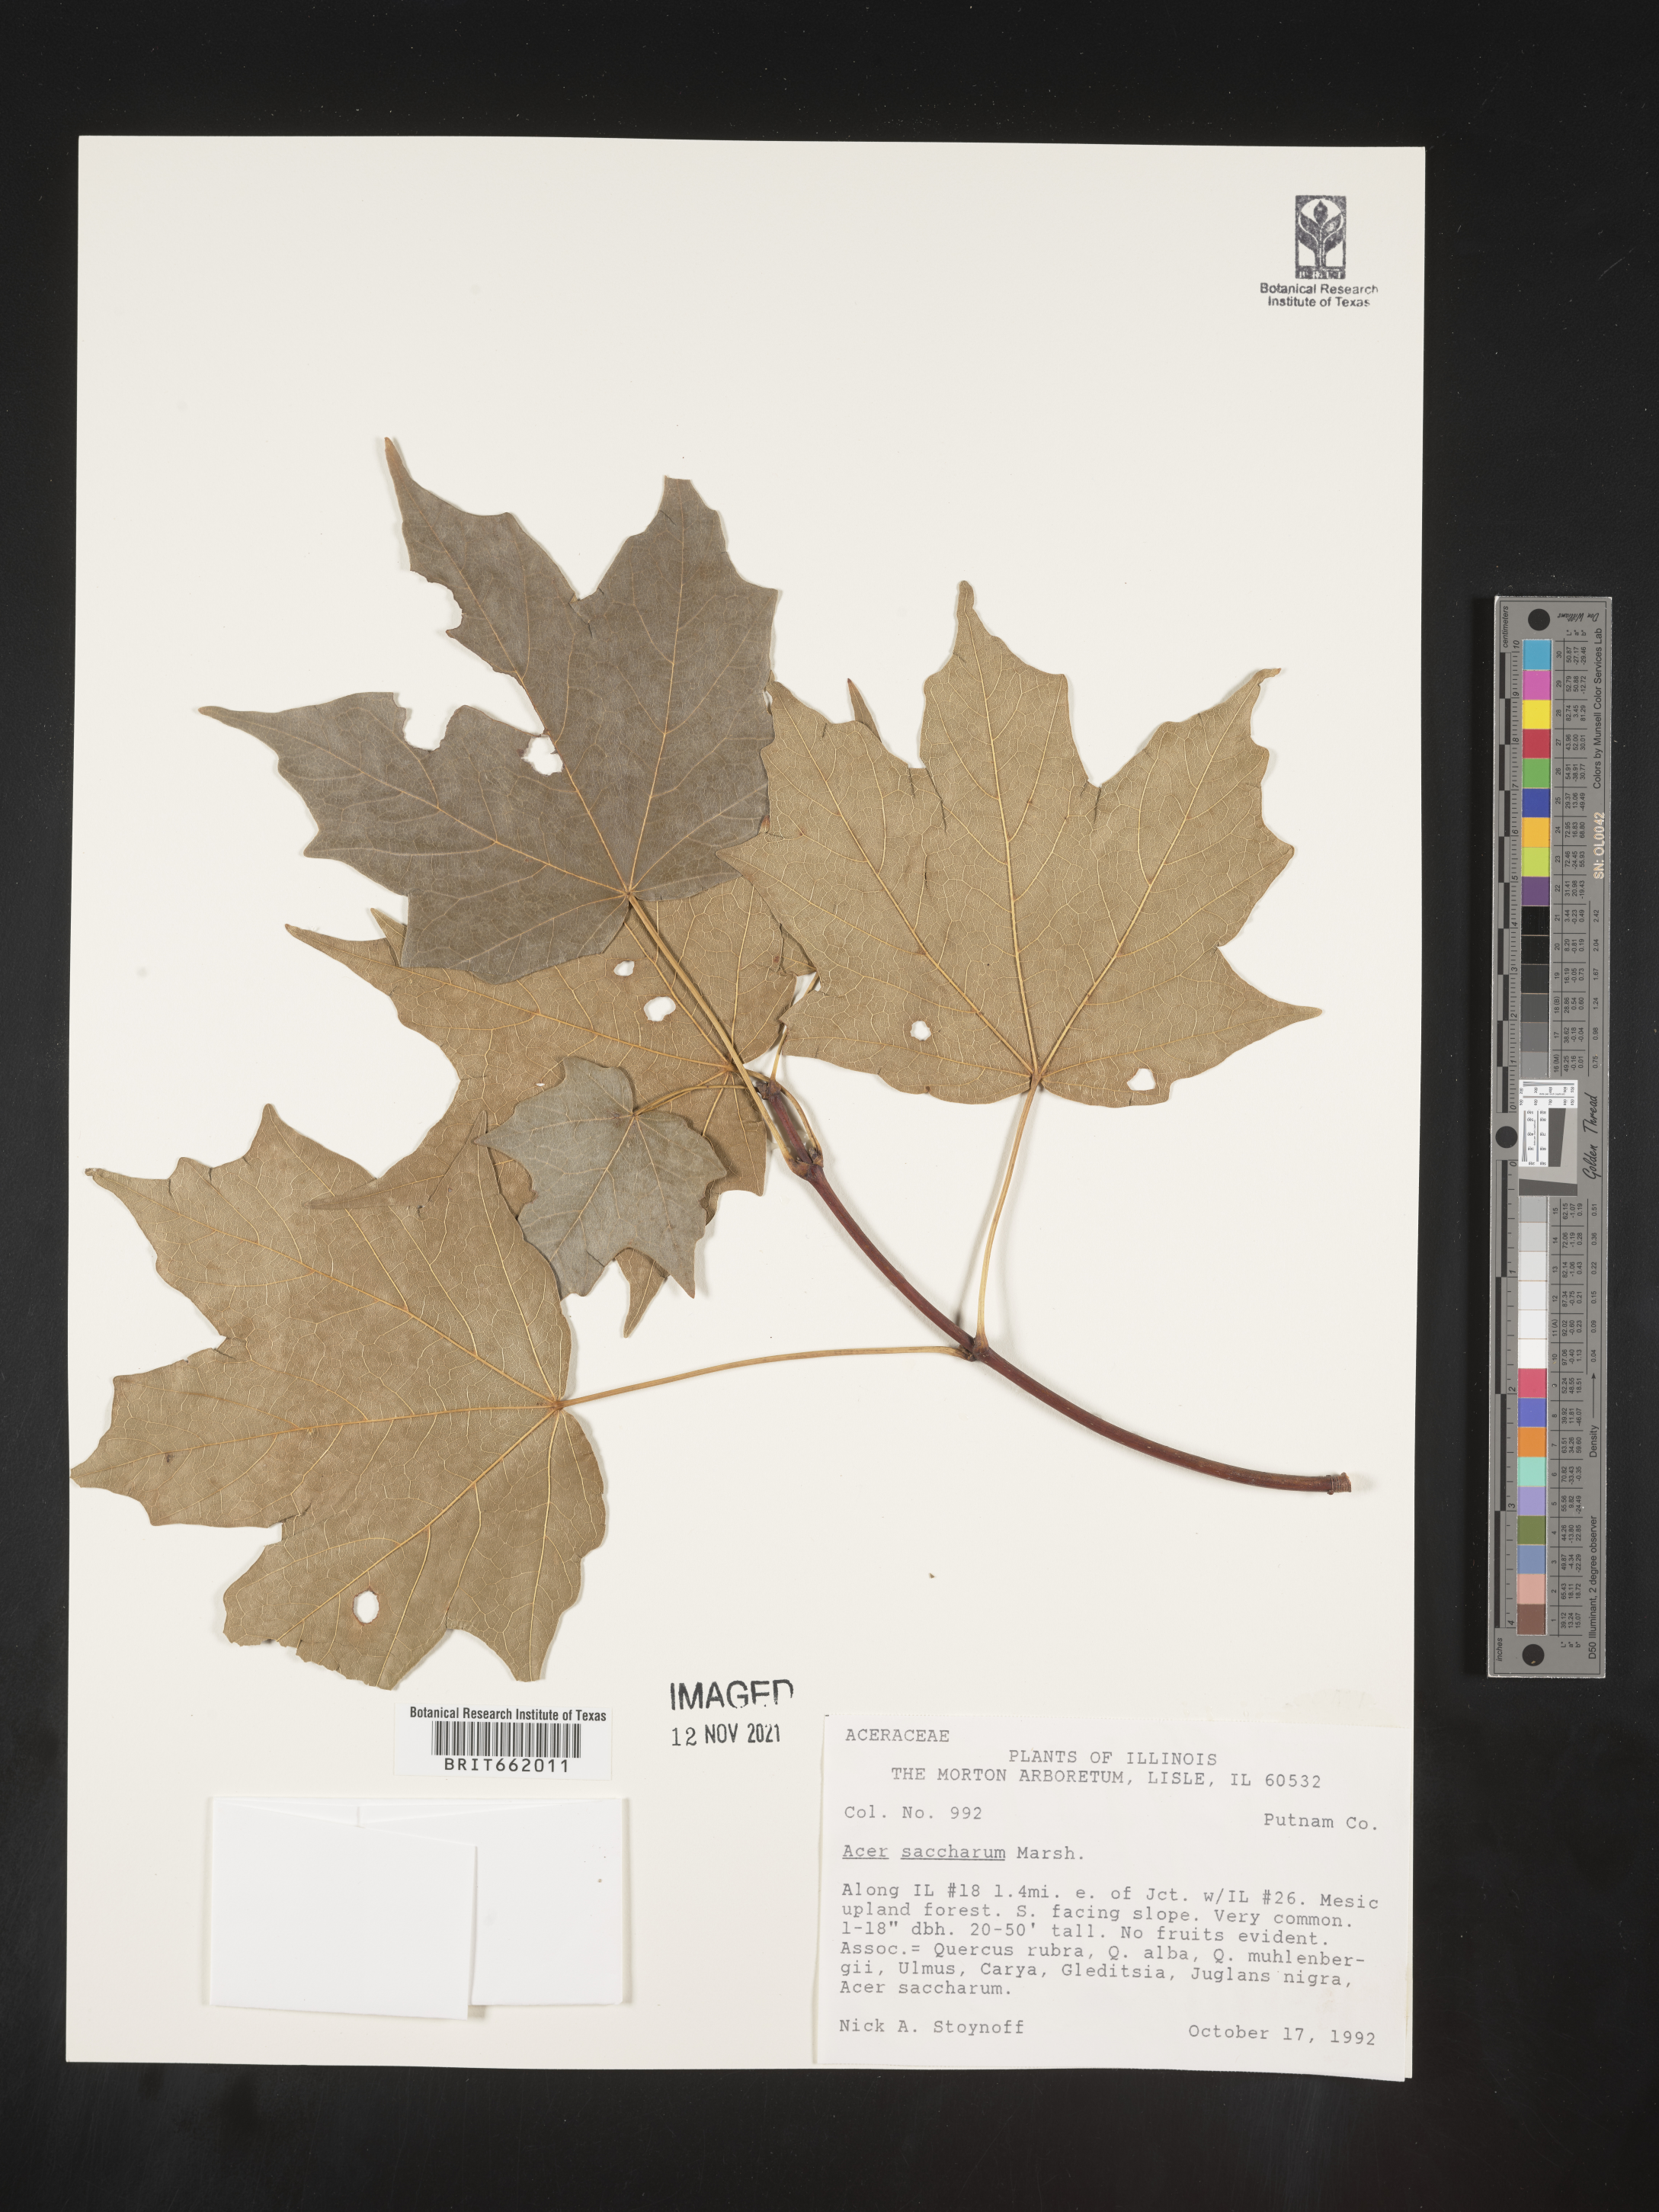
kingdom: Plantae
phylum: Tracheophyta
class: Magnoliopsida
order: Sapindales
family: Sapindaceae
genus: Acer
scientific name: Acer saccharum
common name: Sugar maple
